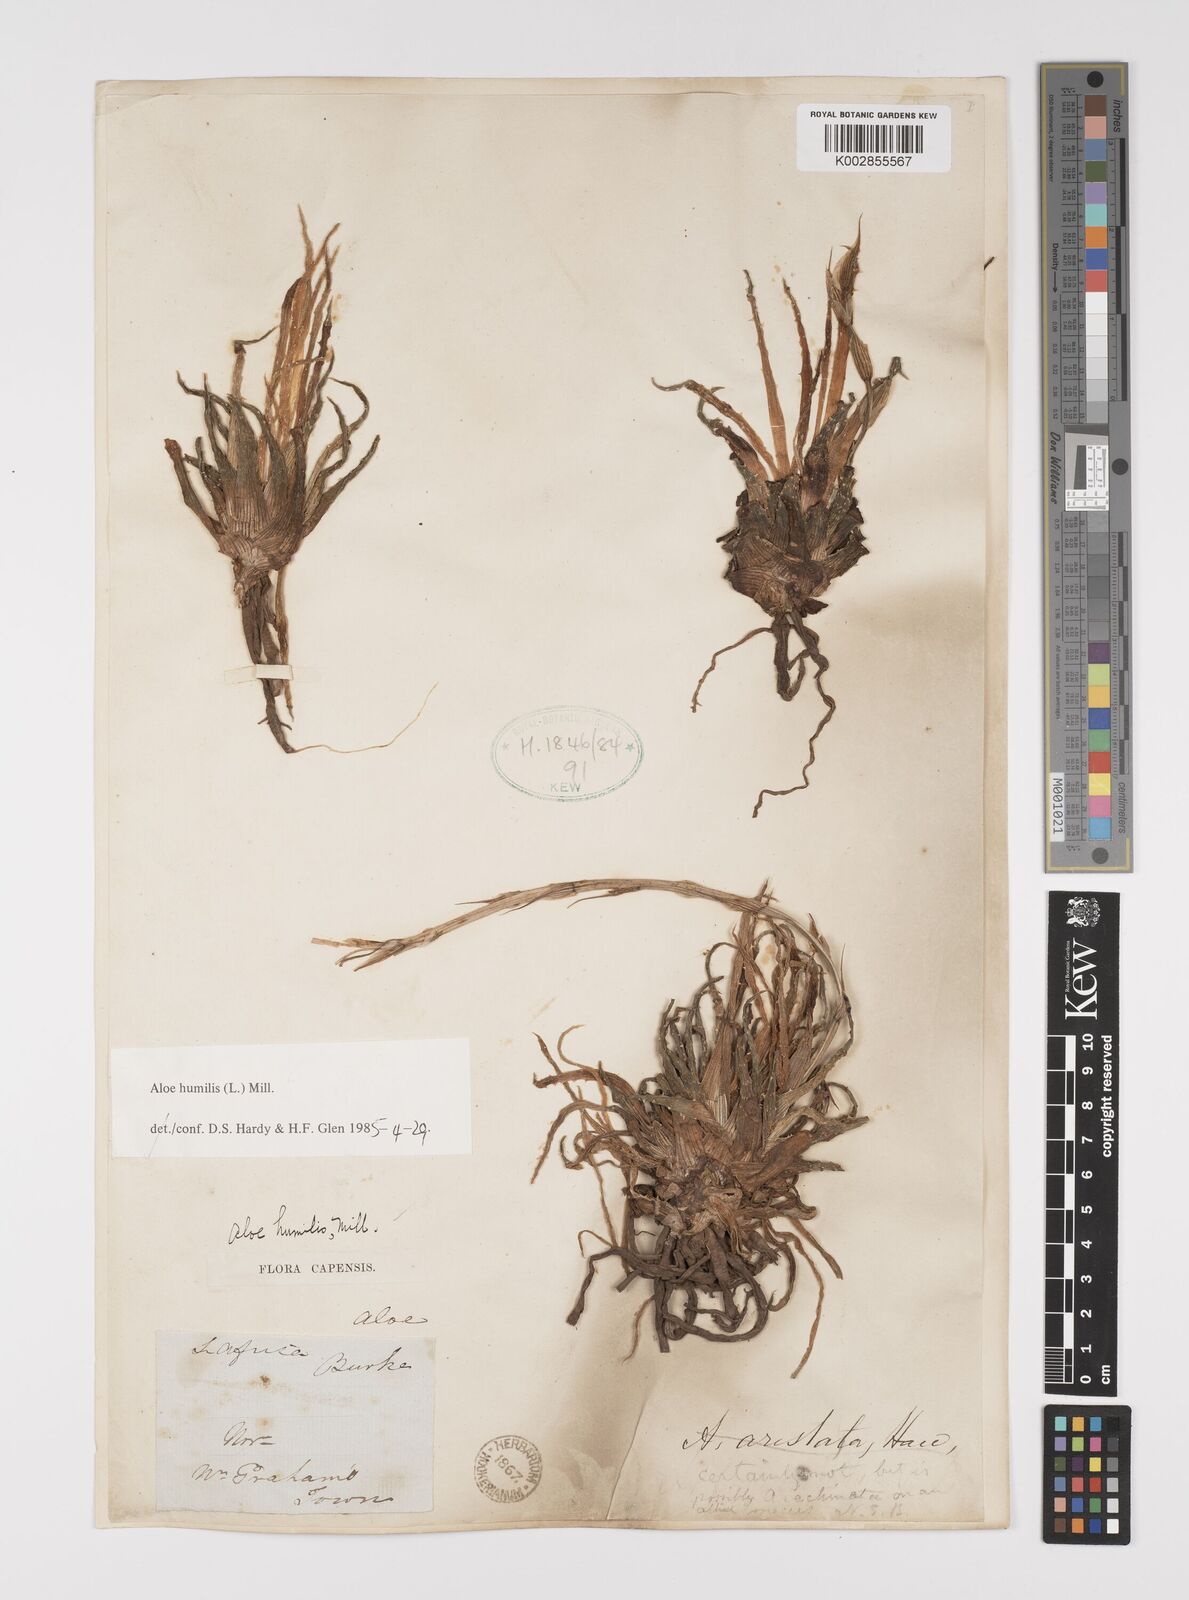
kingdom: Plantae
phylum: Tracheophyta
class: Liliopsida
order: Asparagales
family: Asphodelaceae
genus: Aloe
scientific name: Aloe humilis
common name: Dwarf hedgehog aloe
